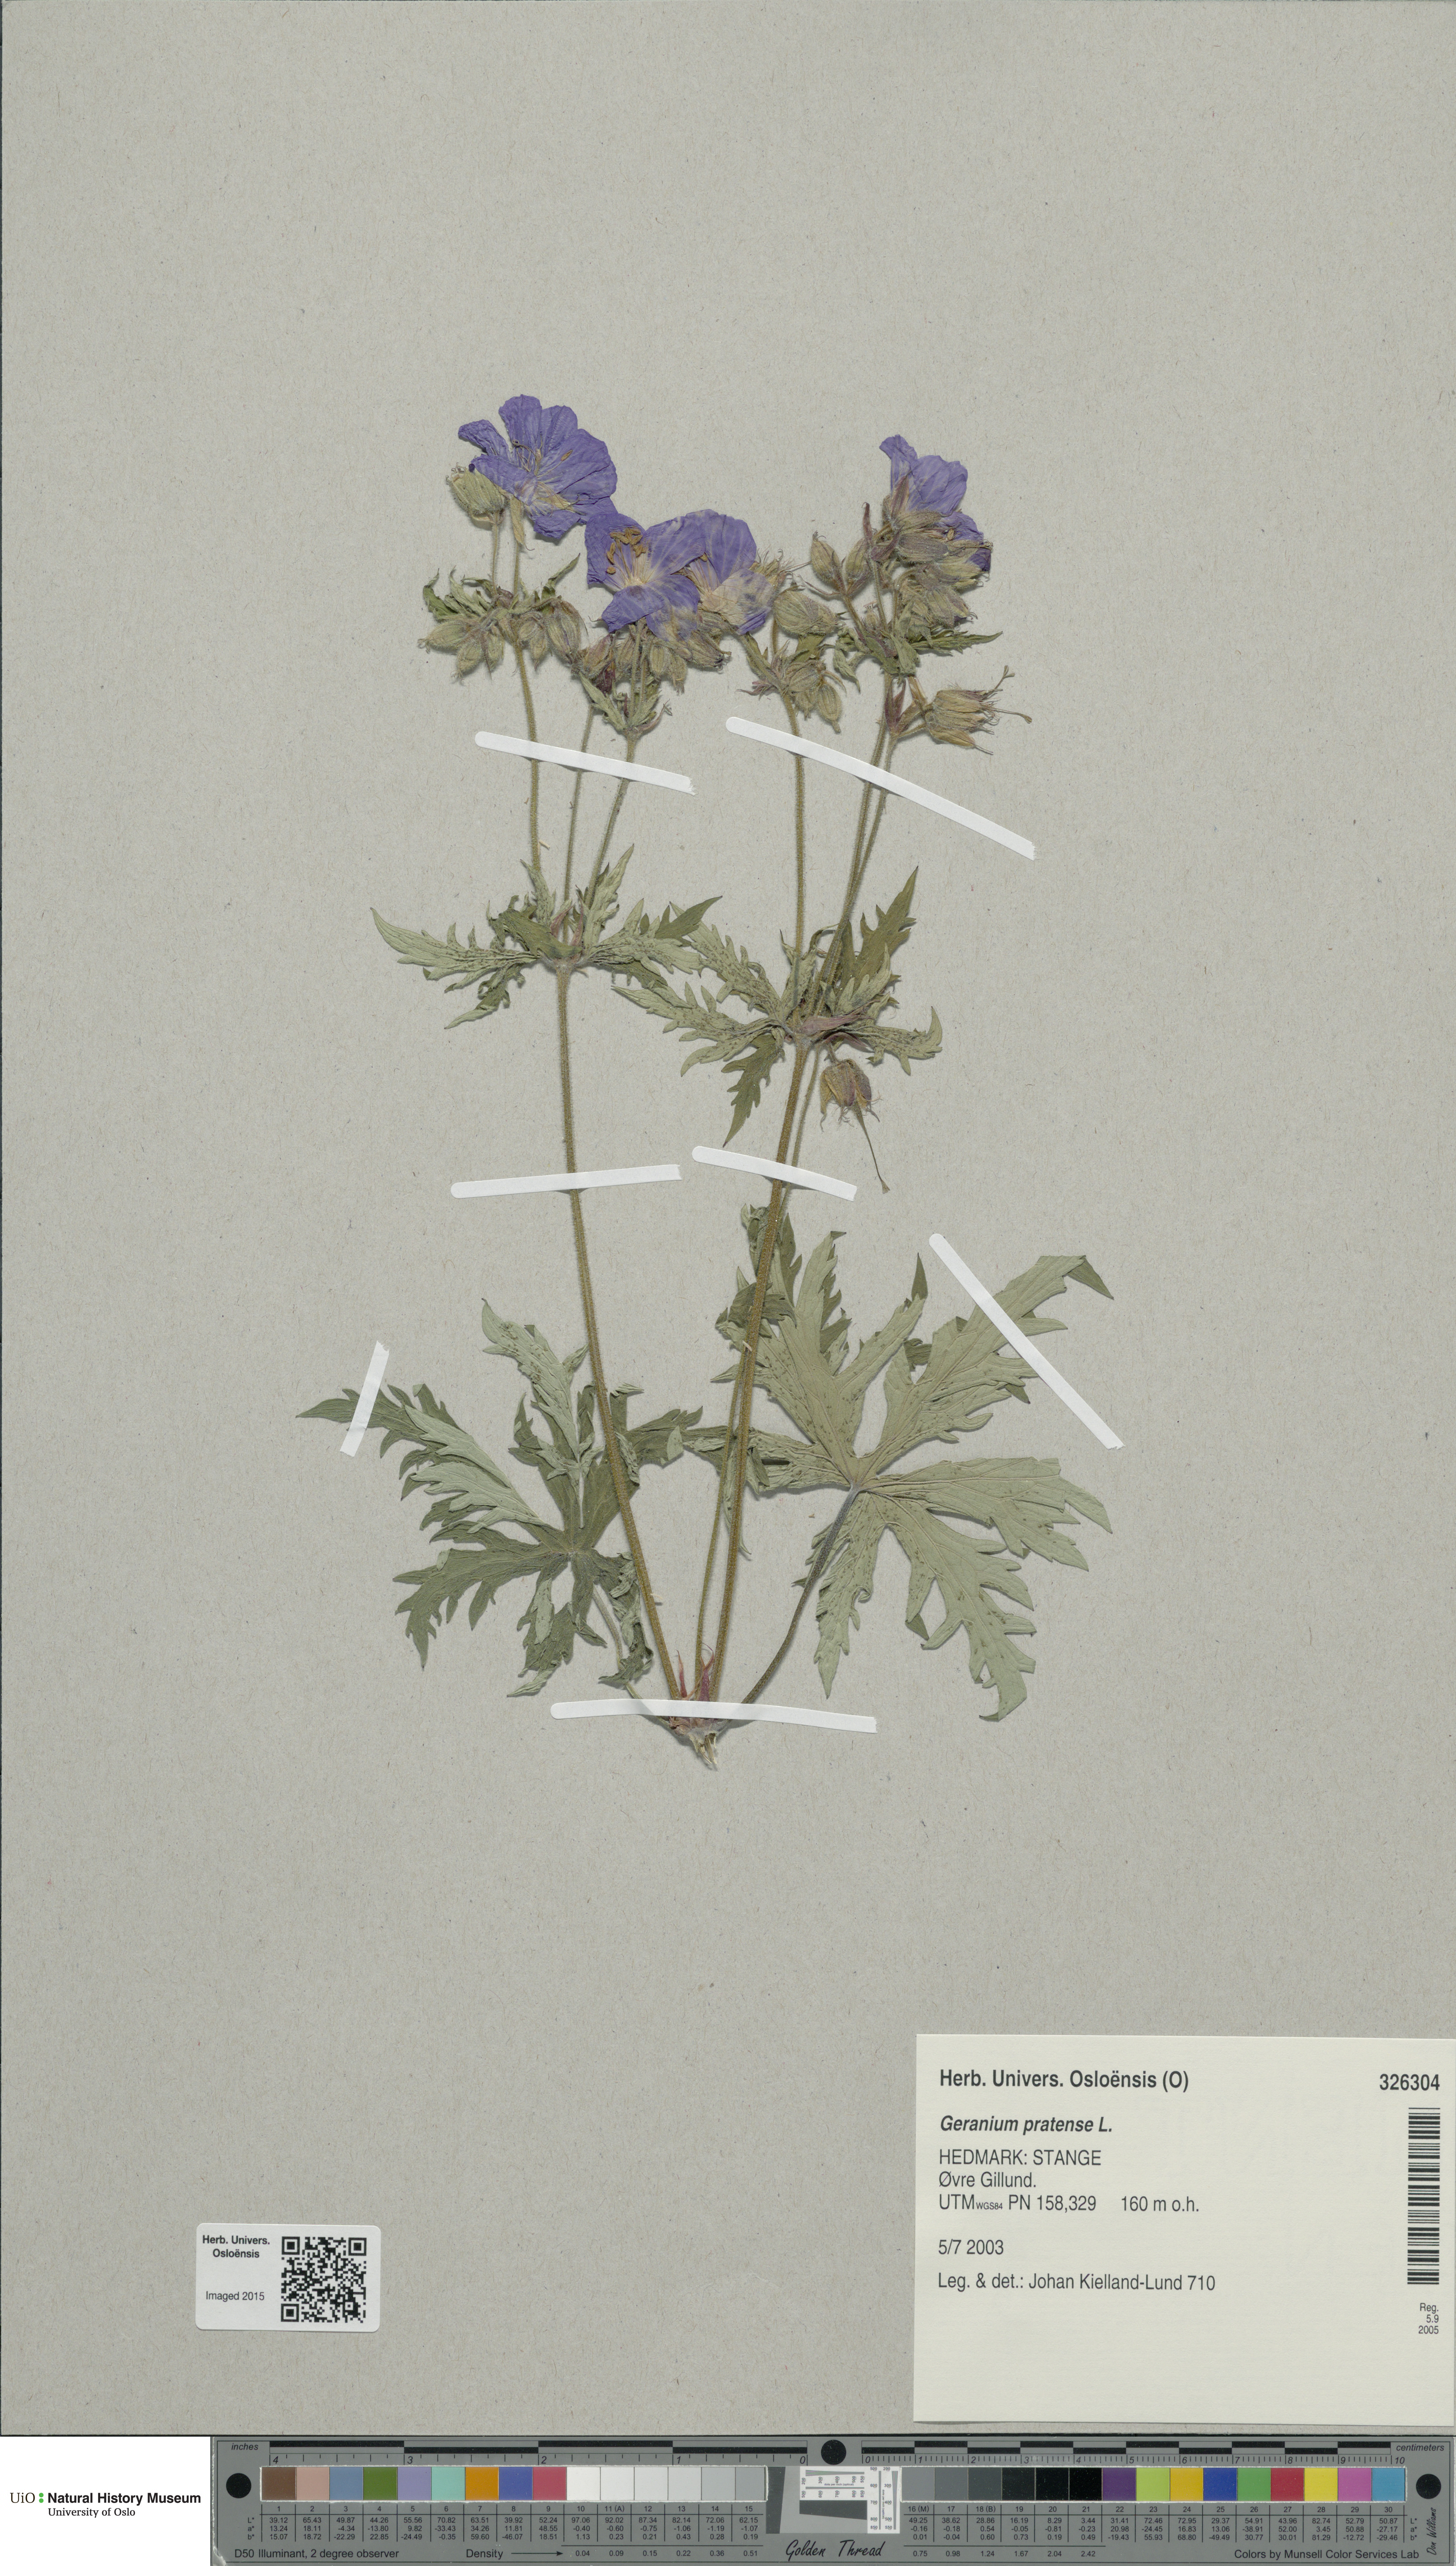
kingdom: Plantae
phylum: Tracheophyta
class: Magnoliopsida
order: Geraniales
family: Geraniaceae
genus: Geranium
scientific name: Geranium pratense
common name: Meadow crane's-bill
